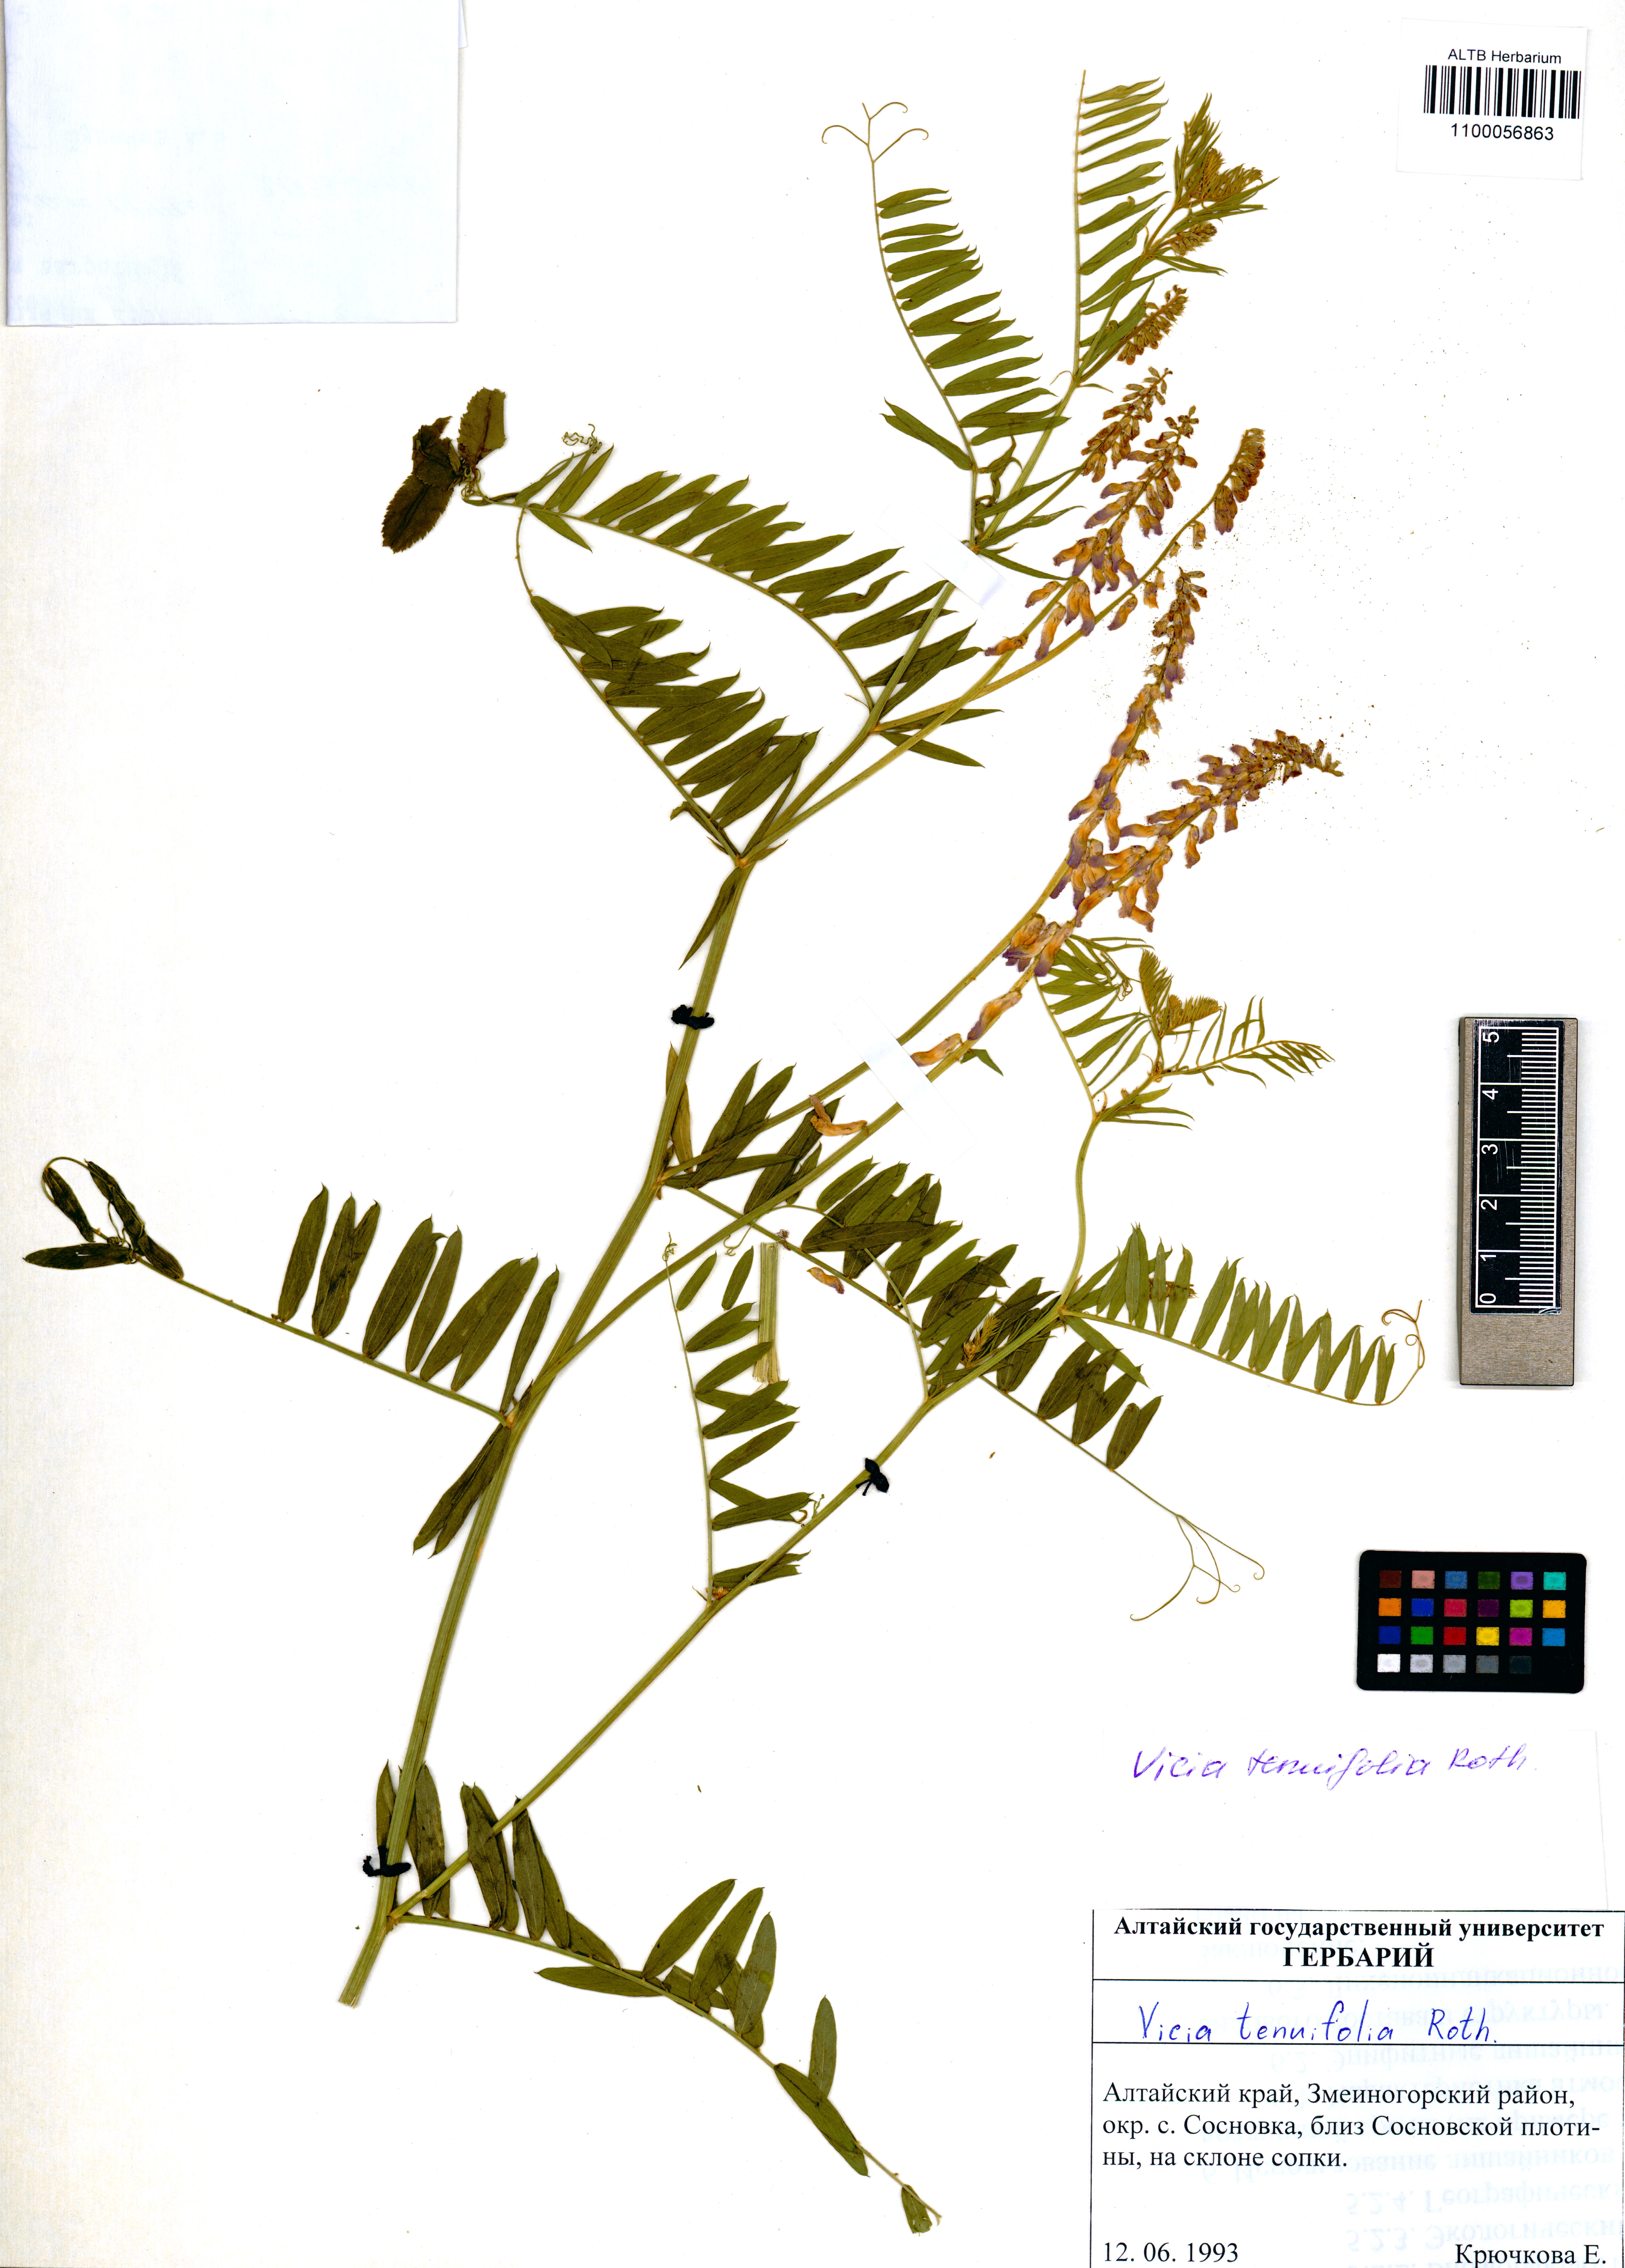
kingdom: Plantae
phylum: Tracheophyta
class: Magnoliopsida
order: Fabales
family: Fabaceae
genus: Vicia
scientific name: Vicia tenuifolia
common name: Fine-leaved vetch
